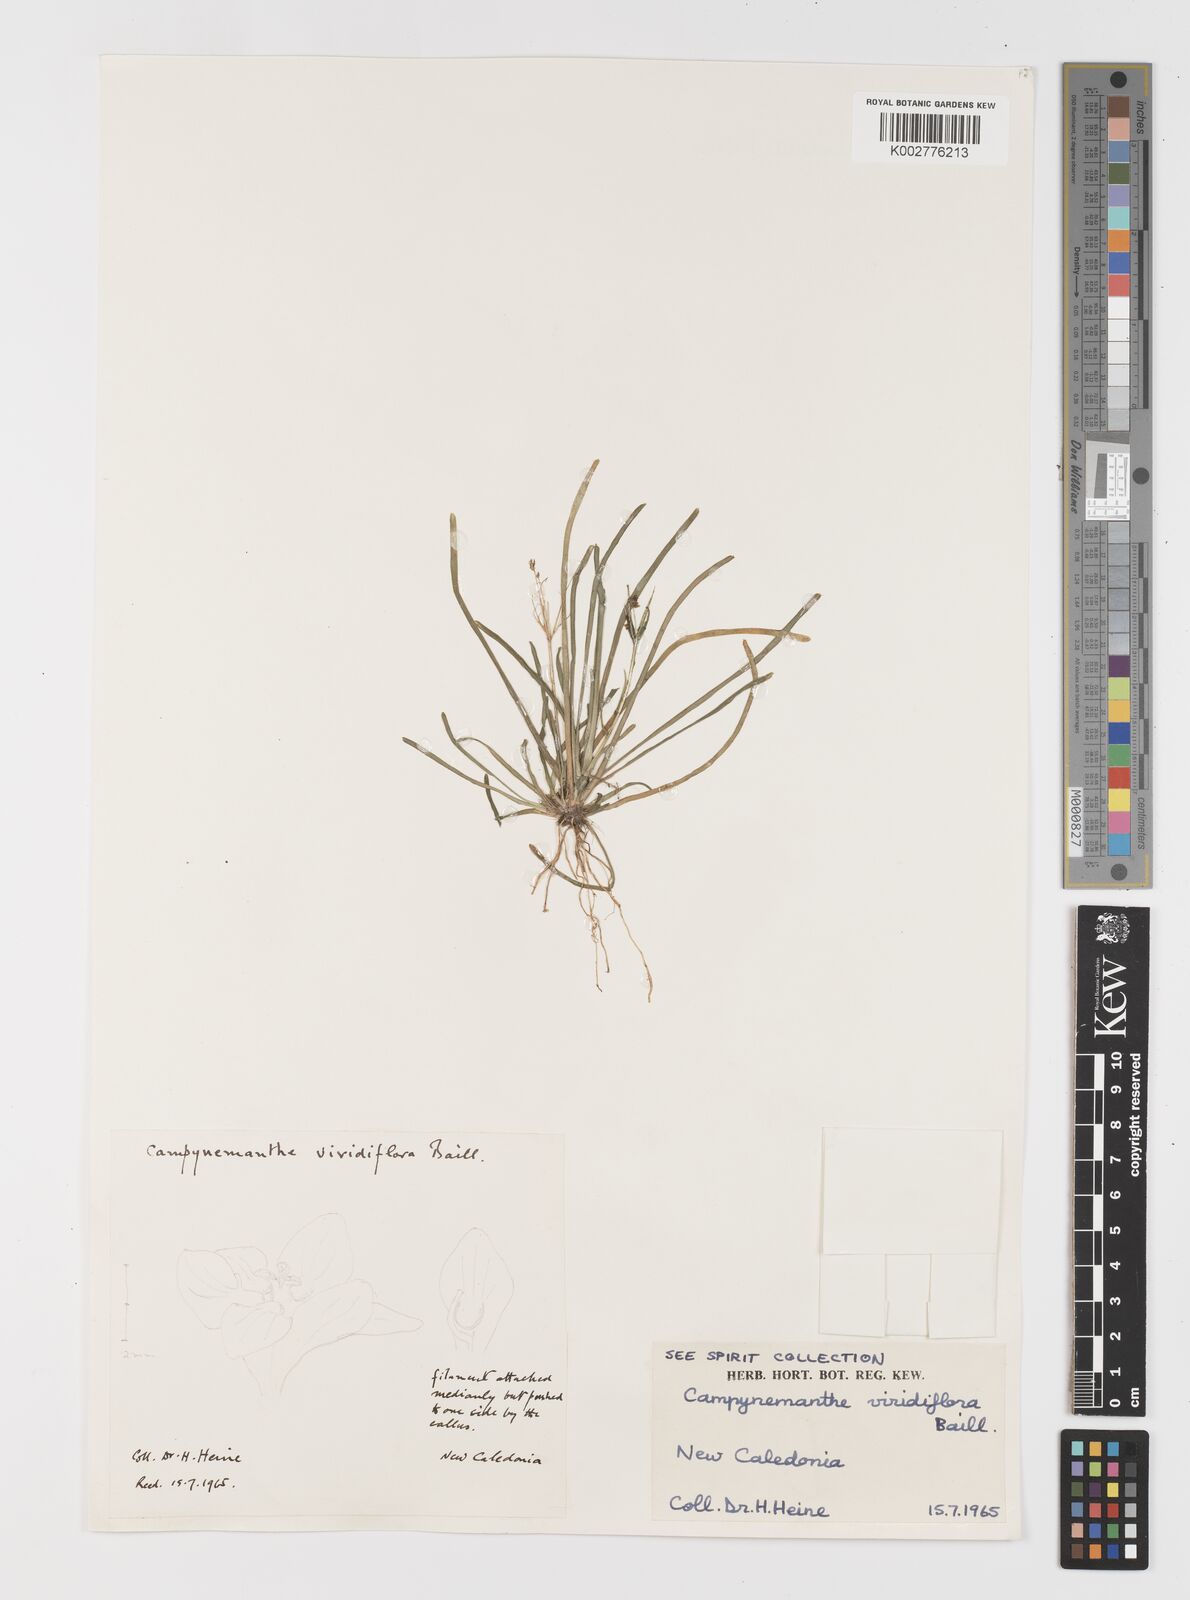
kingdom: Plantae
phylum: Tracheophyta
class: Liliopsida
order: Liliales
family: Campynemataceae
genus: Campynemanthe
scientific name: Campynemanthe viridiflora
